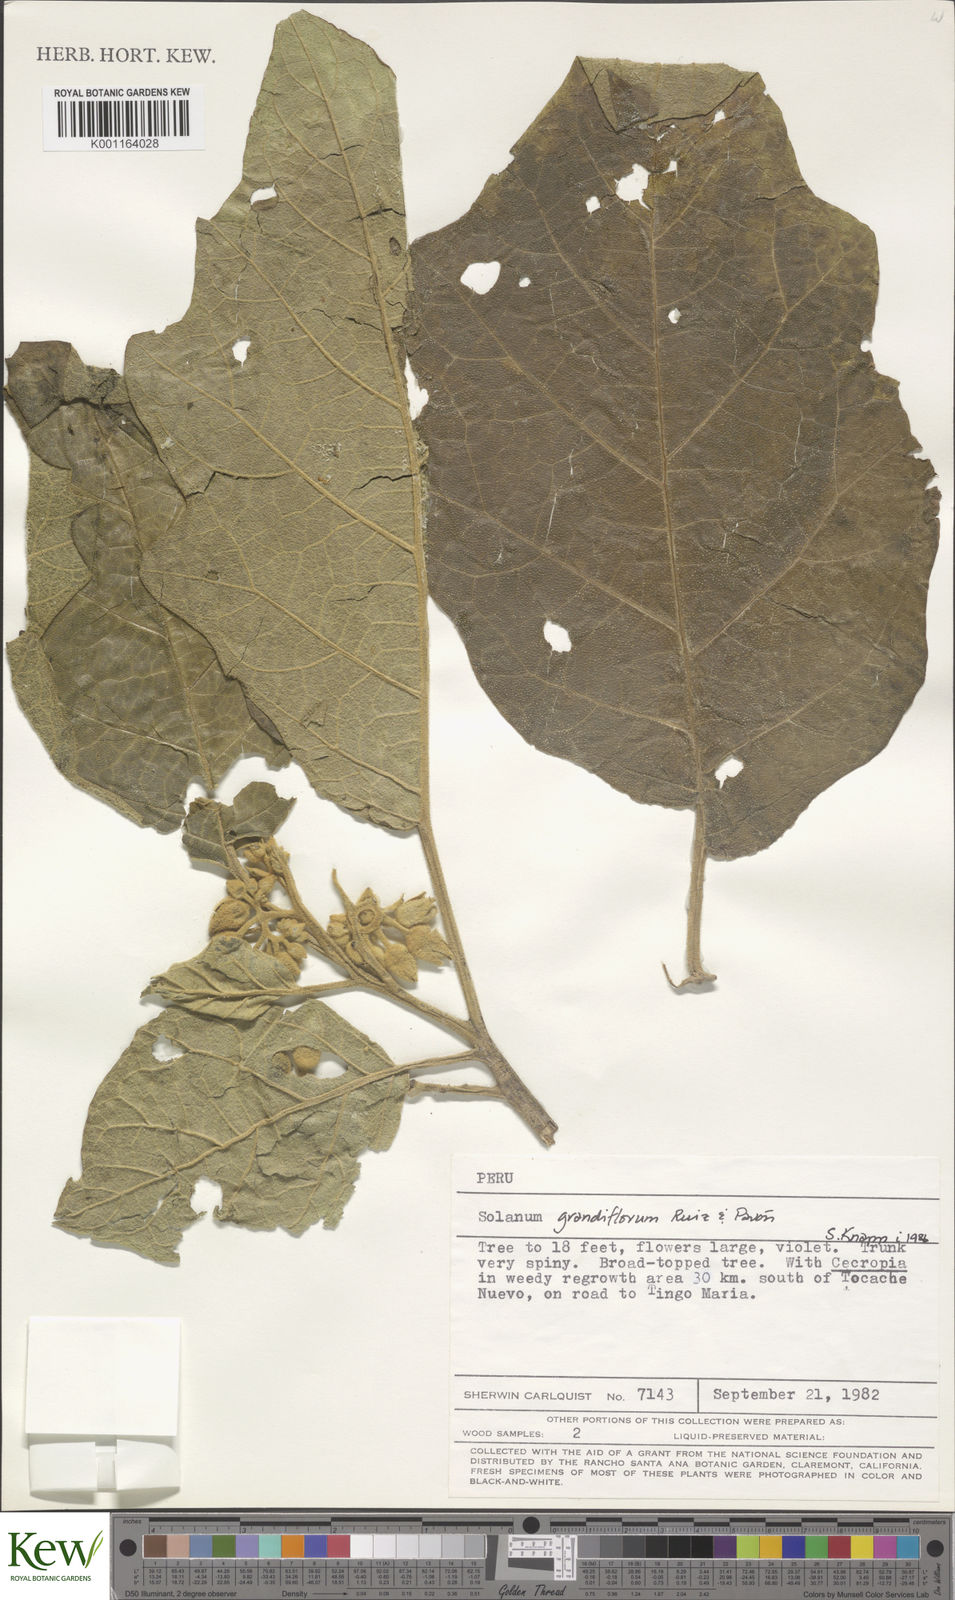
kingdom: Plantae
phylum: Tracheophyta
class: Magnoliopsida
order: Solanales
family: Solanaceae
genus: Solanum
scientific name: Solanum grandiflorum
